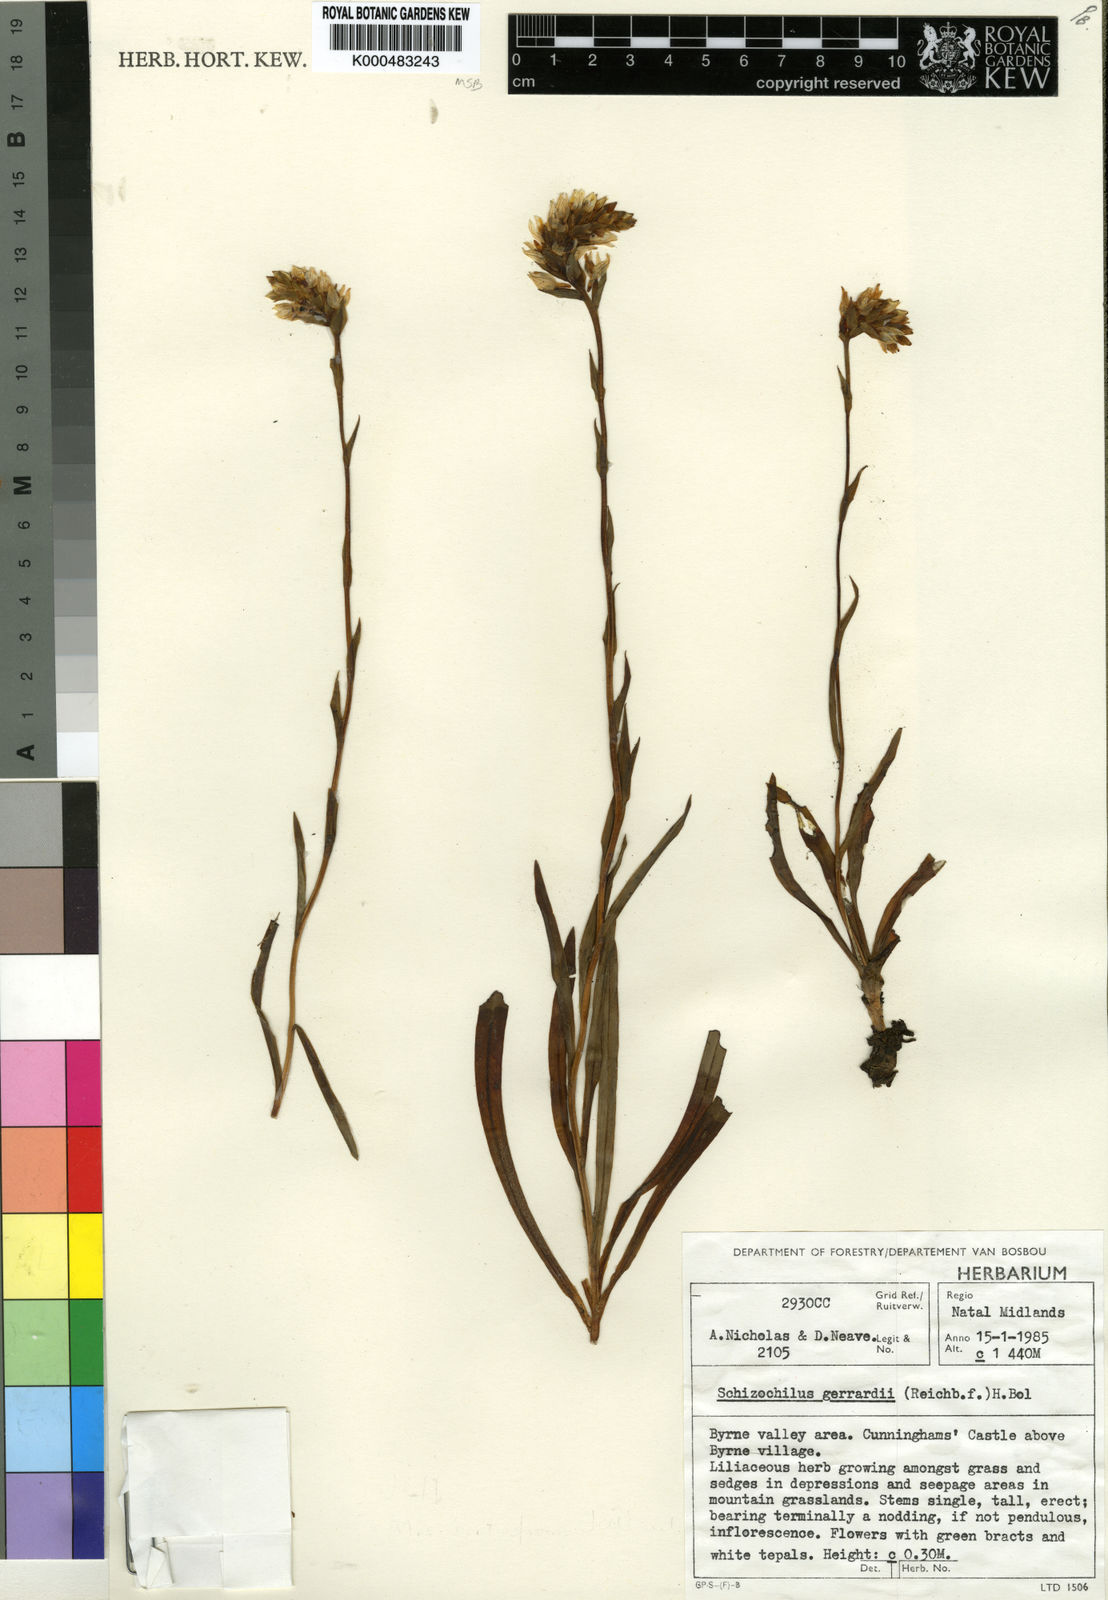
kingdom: Plantae
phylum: Tracheophyta
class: Liliopsida
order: Asparagales
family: Orchidaceae
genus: Schizochilus
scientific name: Schizochilus gerrardii
